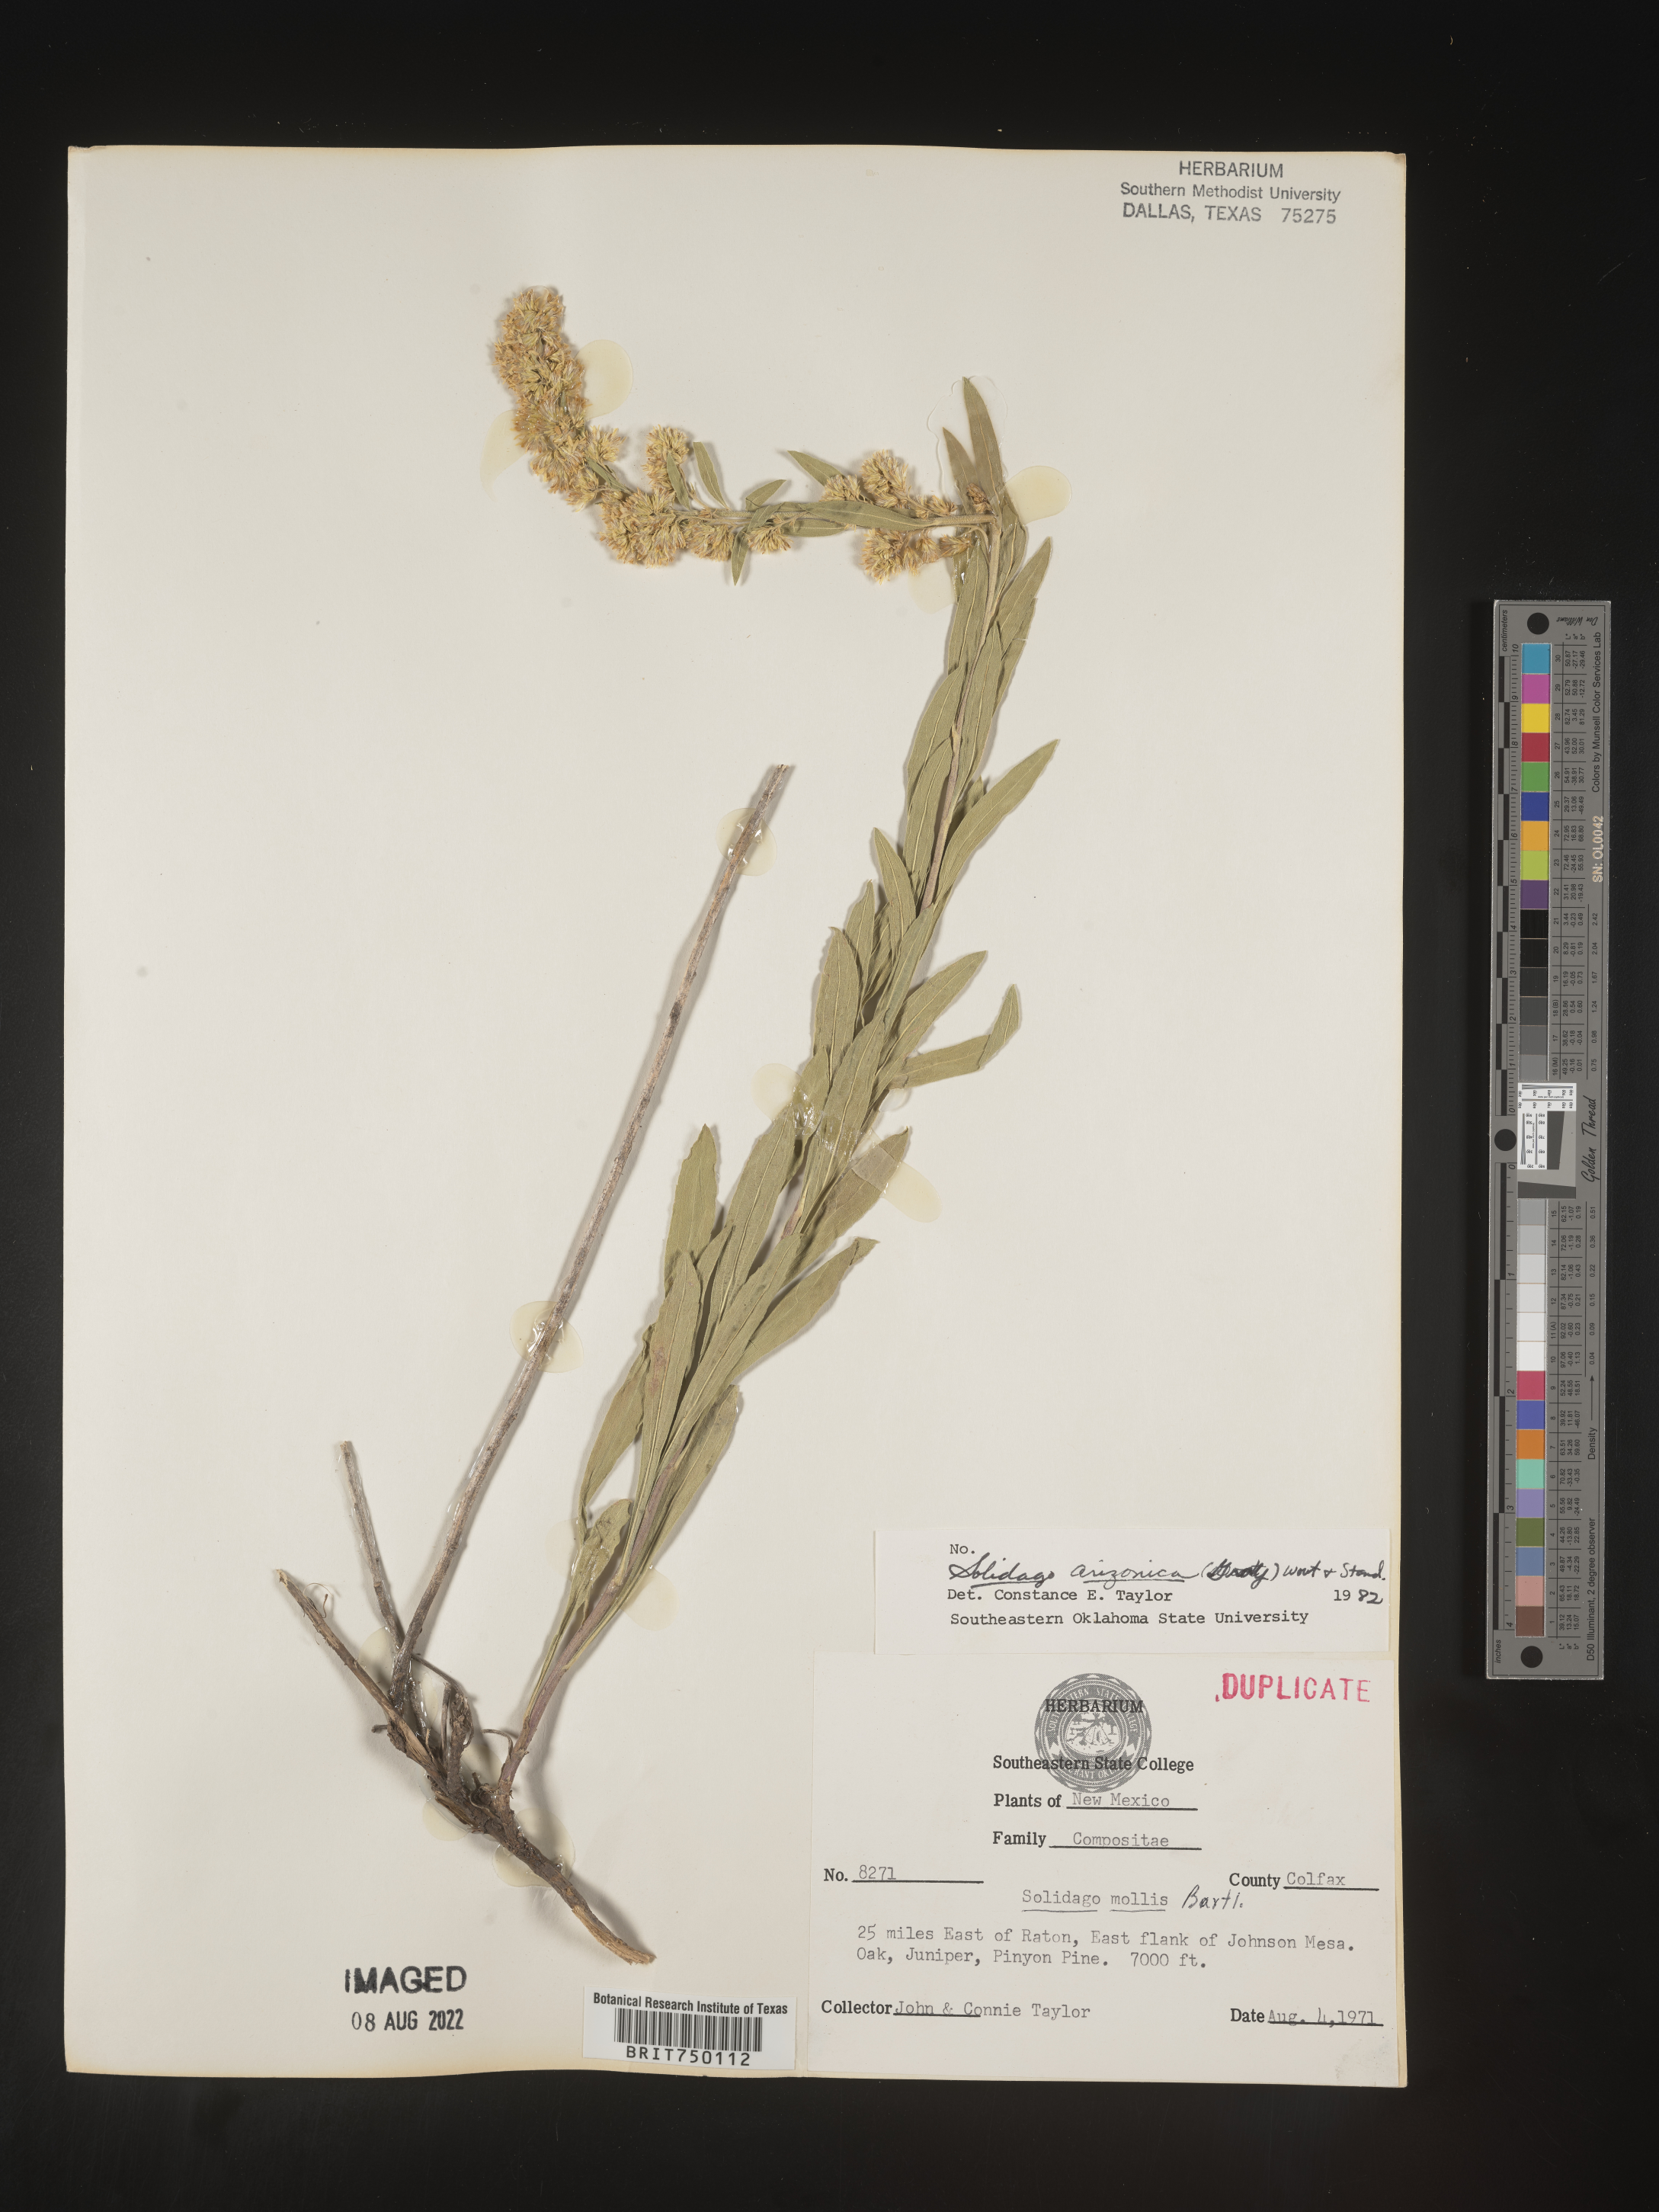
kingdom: Plantae
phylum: Tracheophyta
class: Magnoliopsida
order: Asterales
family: Asteraceae
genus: Solidago
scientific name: Solidago velutina
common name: Three-nerve goldenrod
